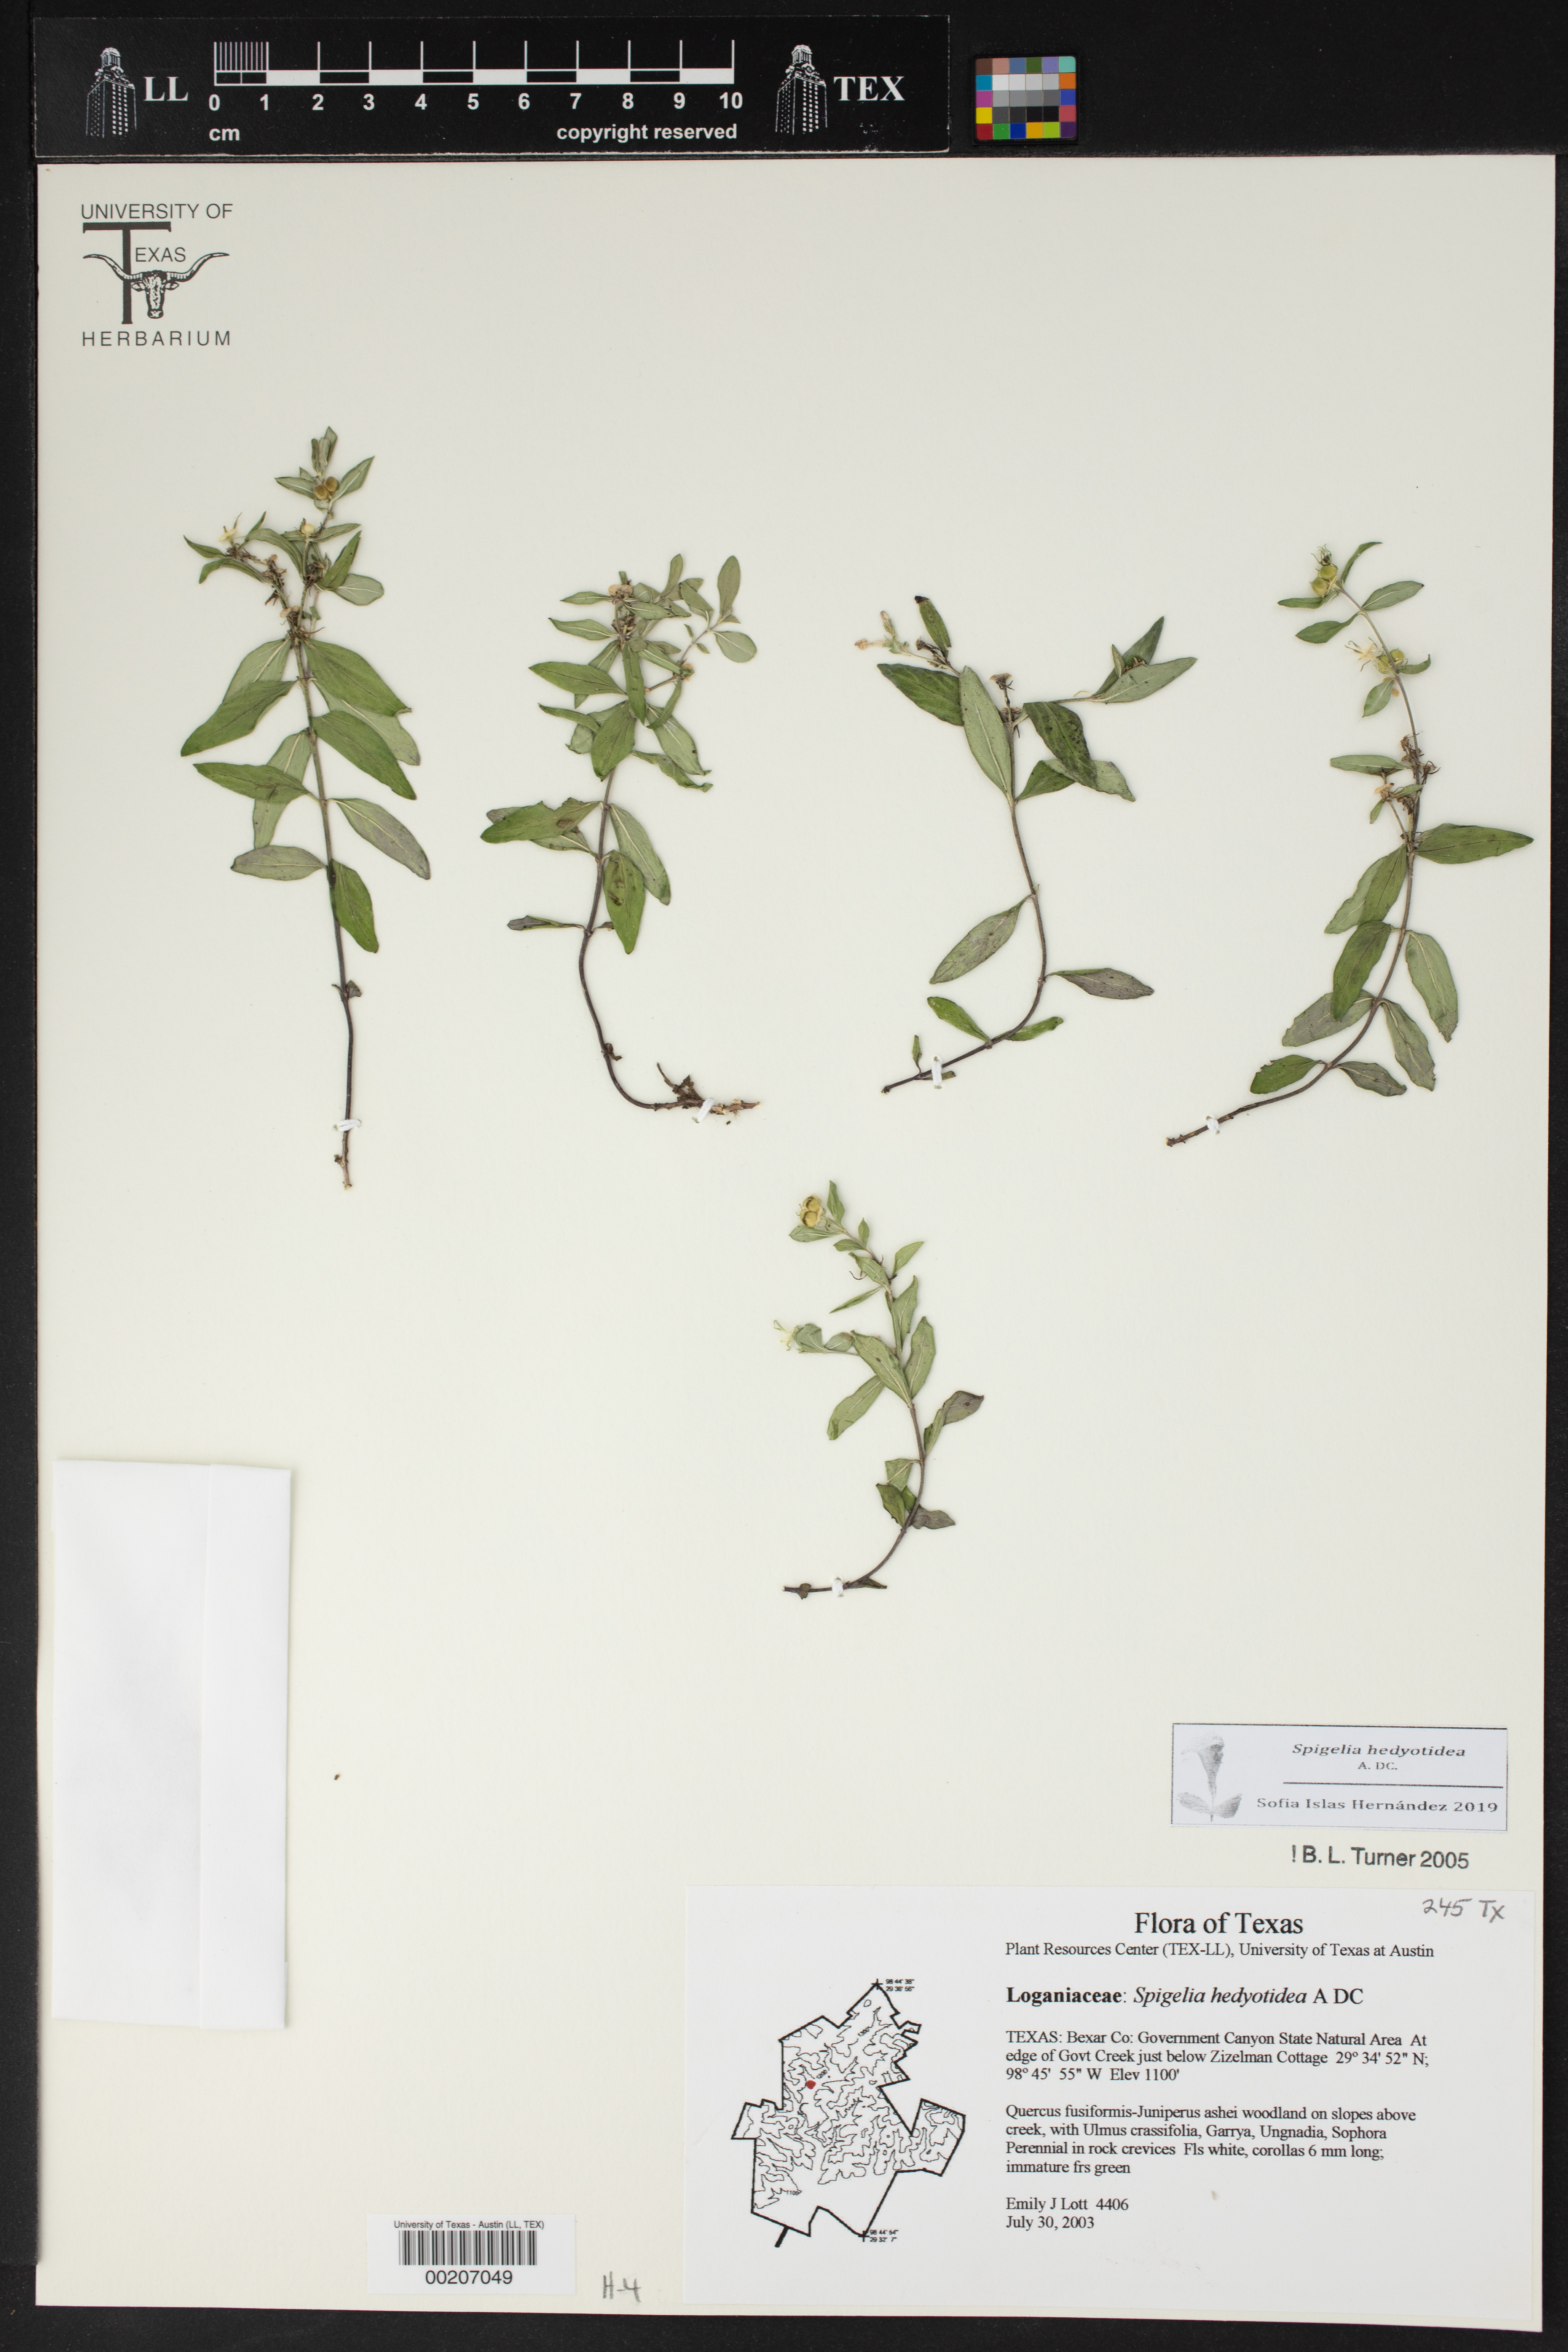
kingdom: Plantae
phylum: Tracheophyta
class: Magnoliopsida
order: Gentianales
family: Loganiaceae
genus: Spigelia
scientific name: Spigelia hedyotidea
